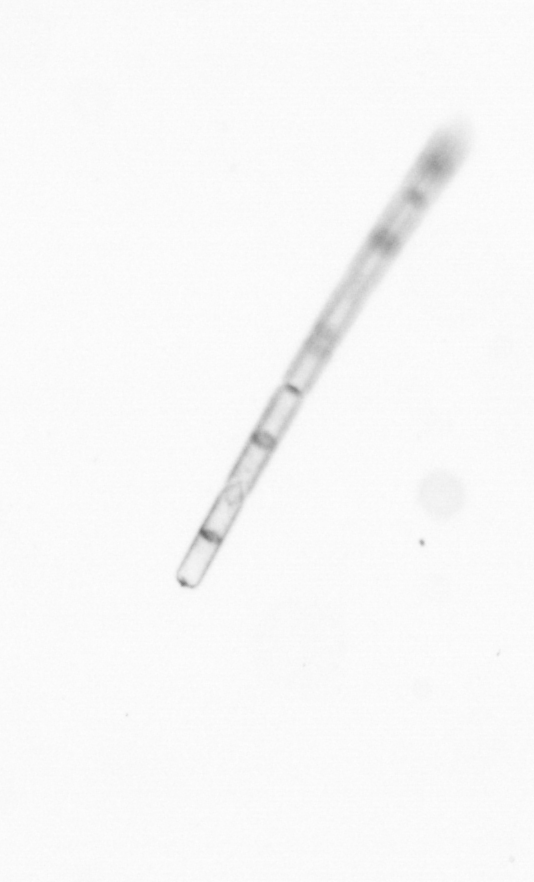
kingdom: Chromista
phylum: Ochrophyta
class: Bacillariophyceae
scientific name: Bacillariophyceae
